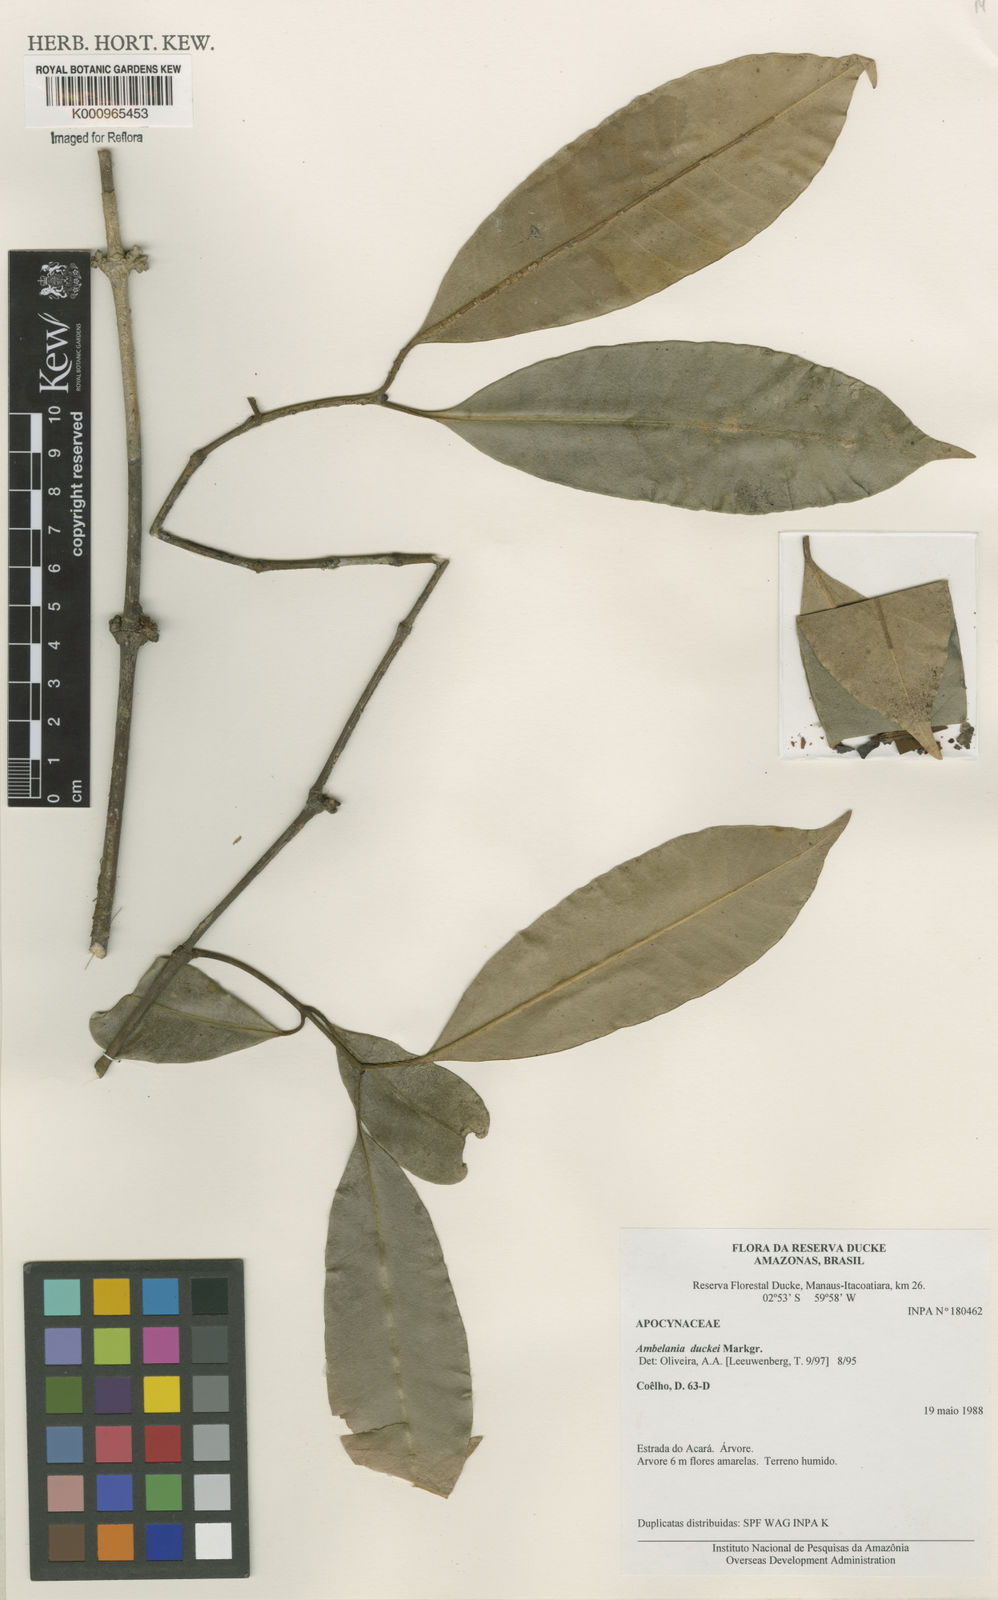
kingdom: Plantae
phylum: Tracheophyta
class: Magnoliopsida
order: Gentianales
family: Apocynaceae
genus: Ambelania
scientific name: Ambelania duckei
